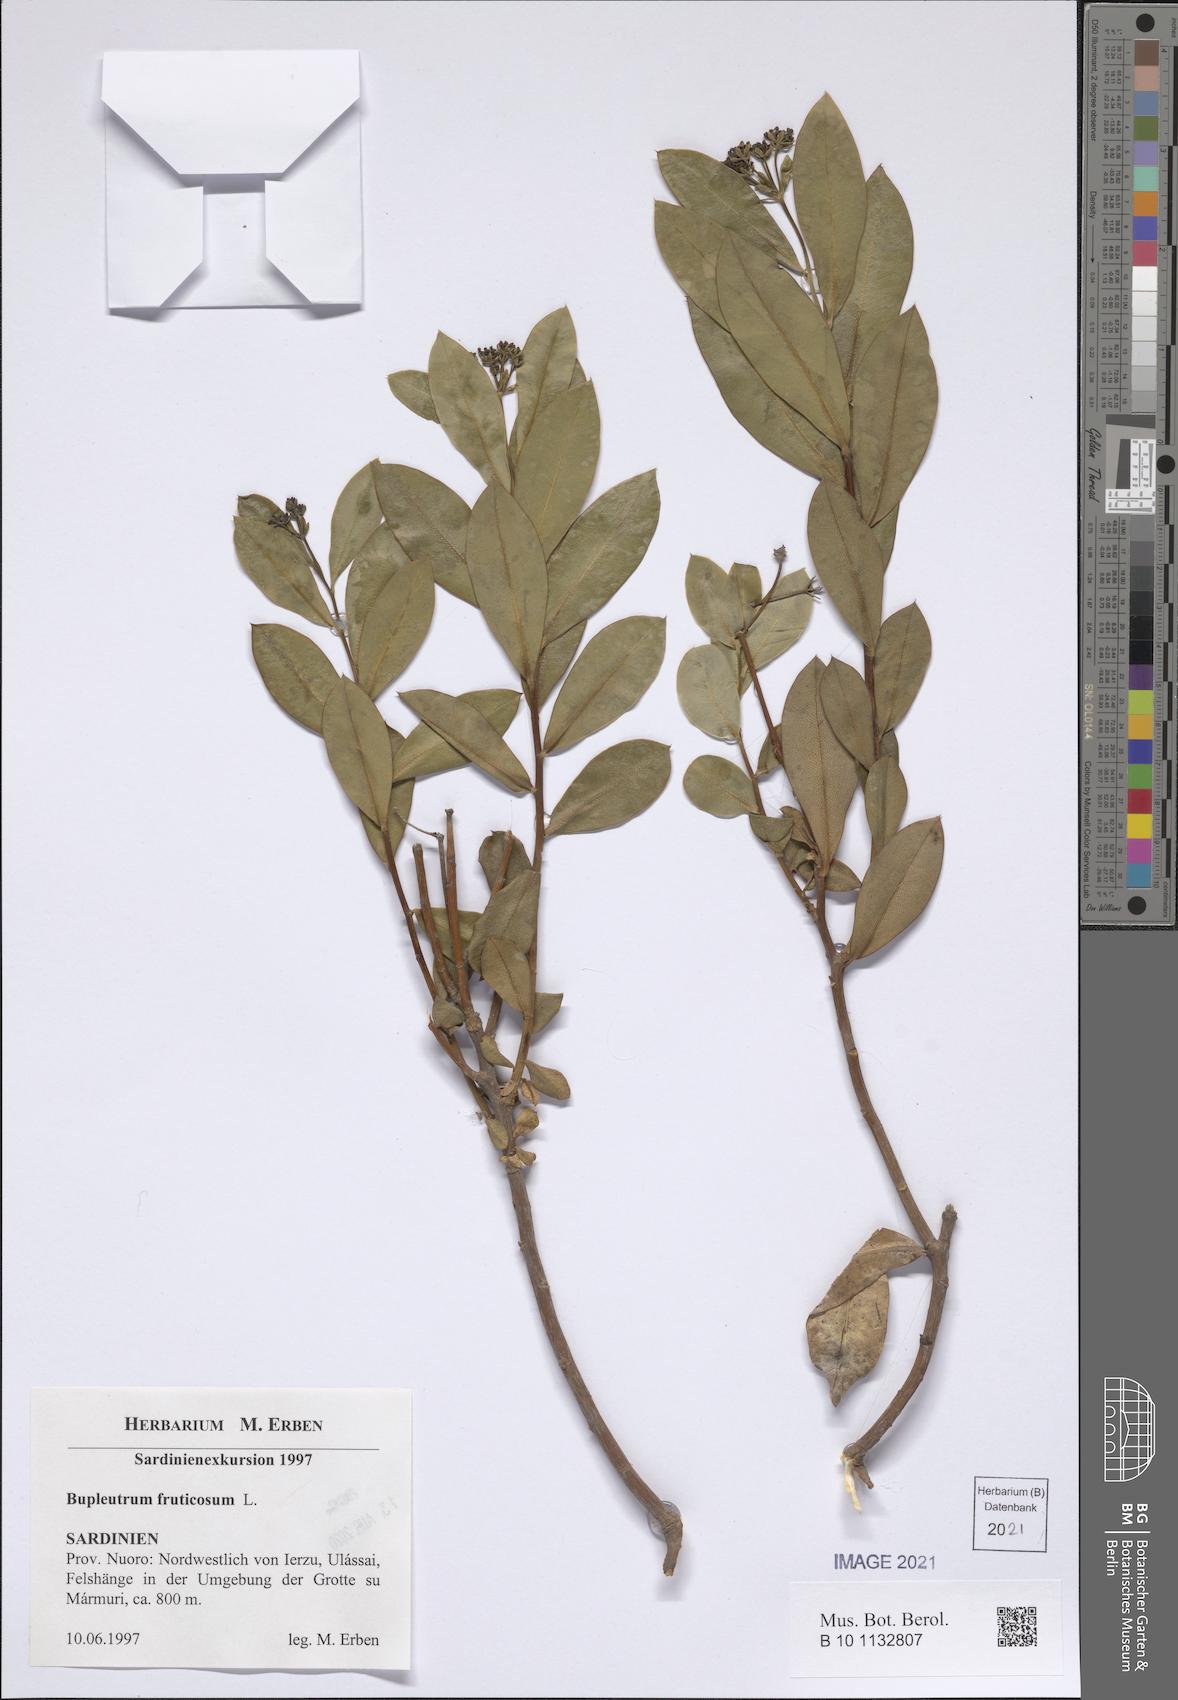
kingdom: Plantae
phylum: Tracheophyta
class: Magnoliopsida
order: Apiales
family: Apiaceae
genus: Bupleurum
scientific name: Bupleurum fruticosum
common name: Shrubby hare's-ear
